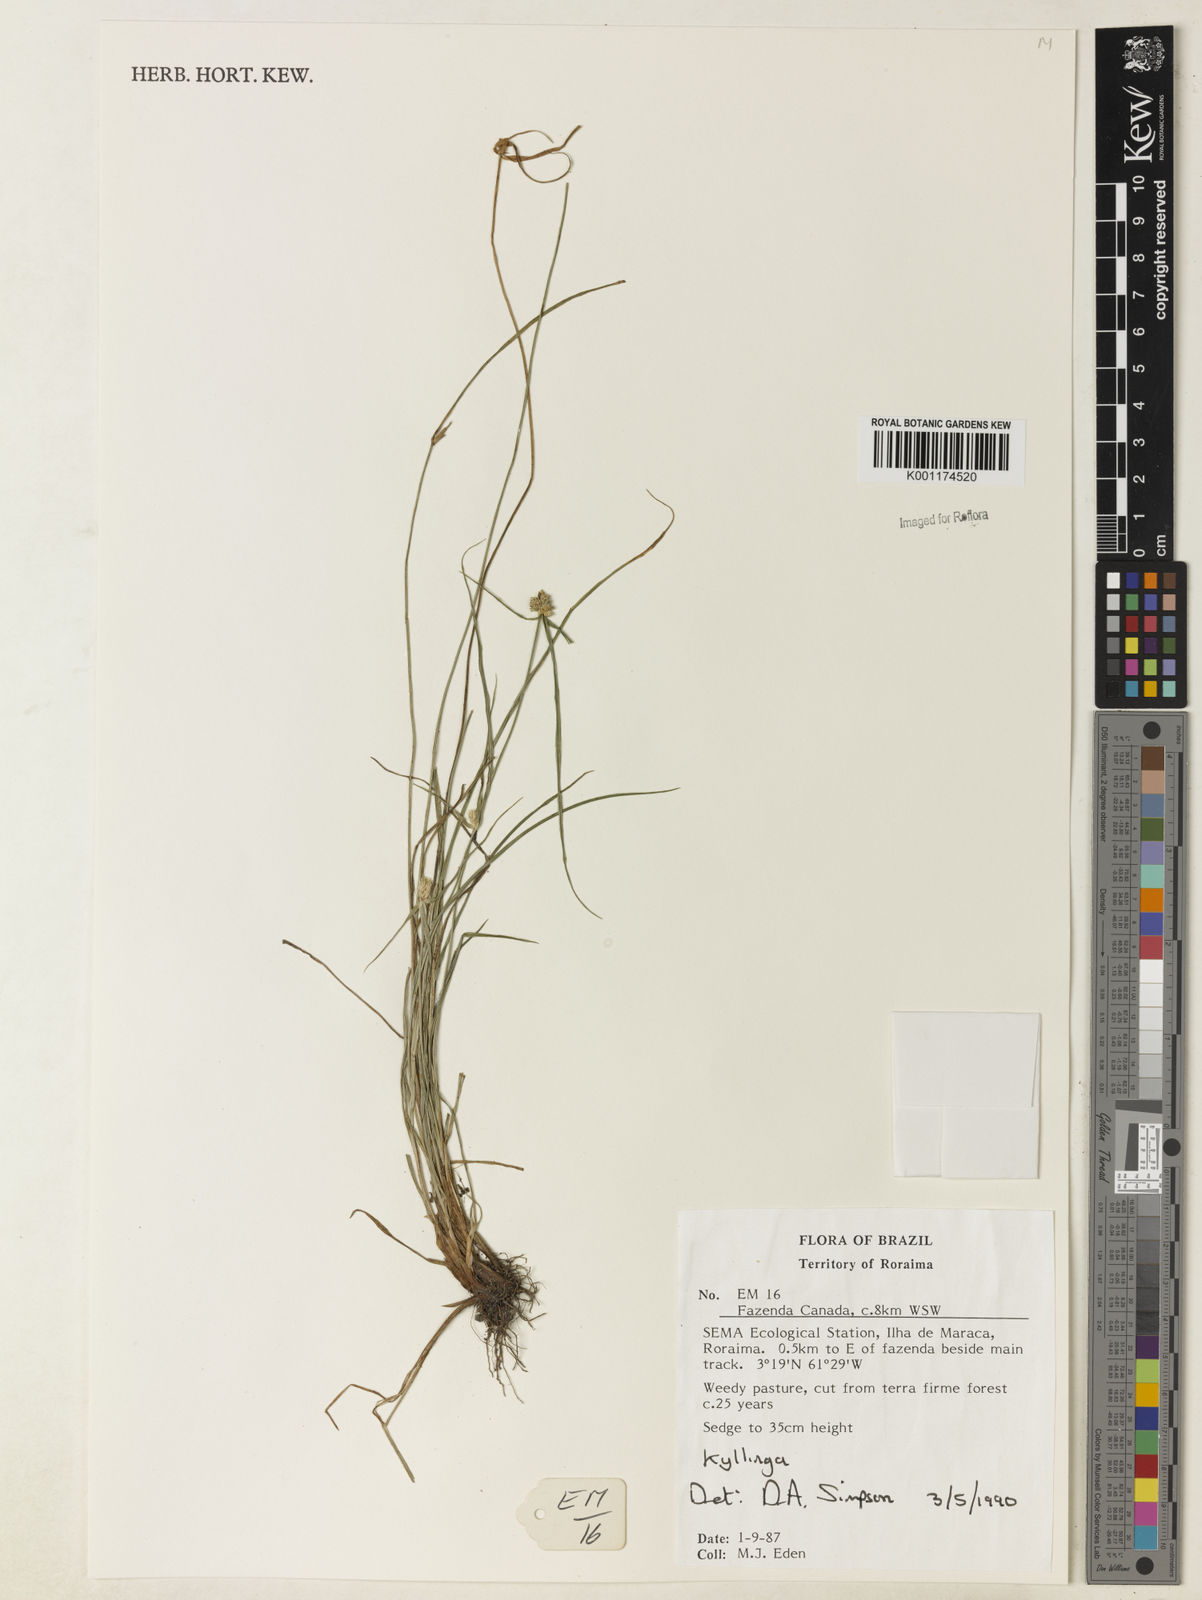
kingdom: Plantae
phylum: Tracheophyta
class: Liliopsida
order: Poales
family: Cyperaceae
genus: Cyperus
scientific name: Cyperus
